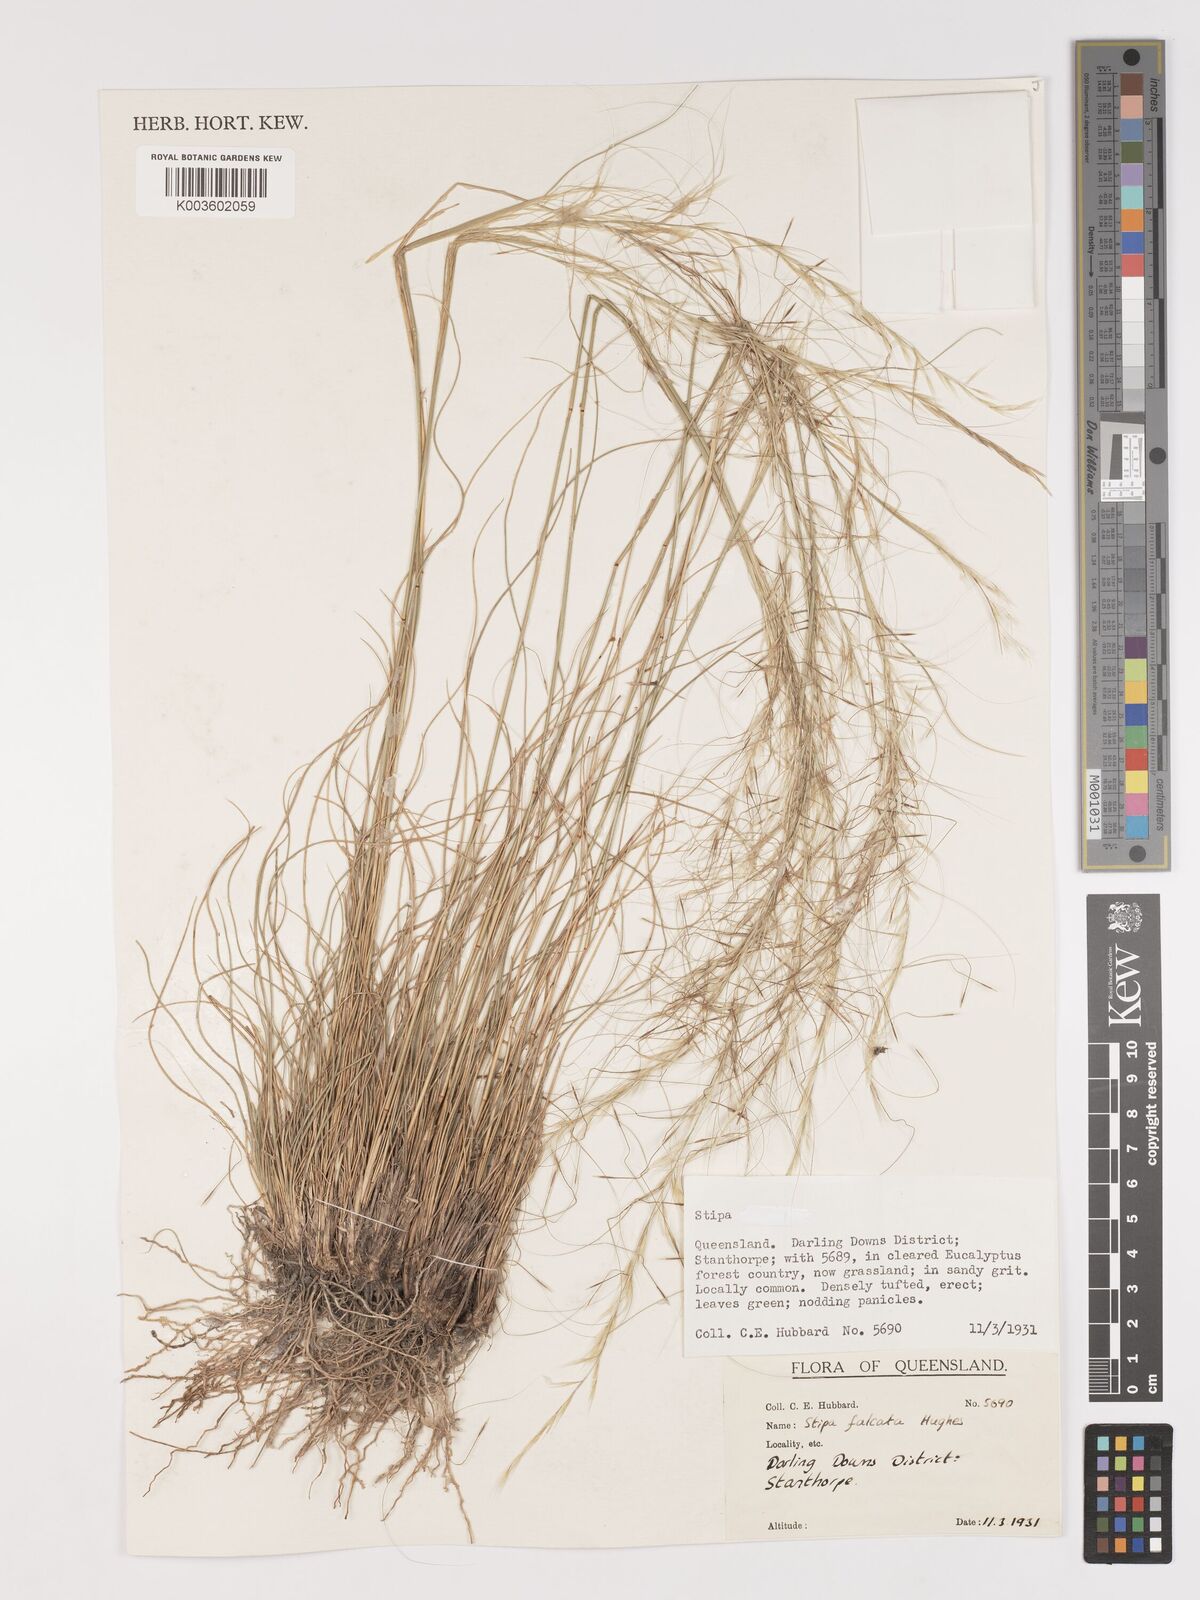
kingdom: Plantae
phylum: Tracheophyta
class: Liliopsida
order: Poales
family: Poaceae
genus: Austrostipa
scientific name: Austrostipa scabra
